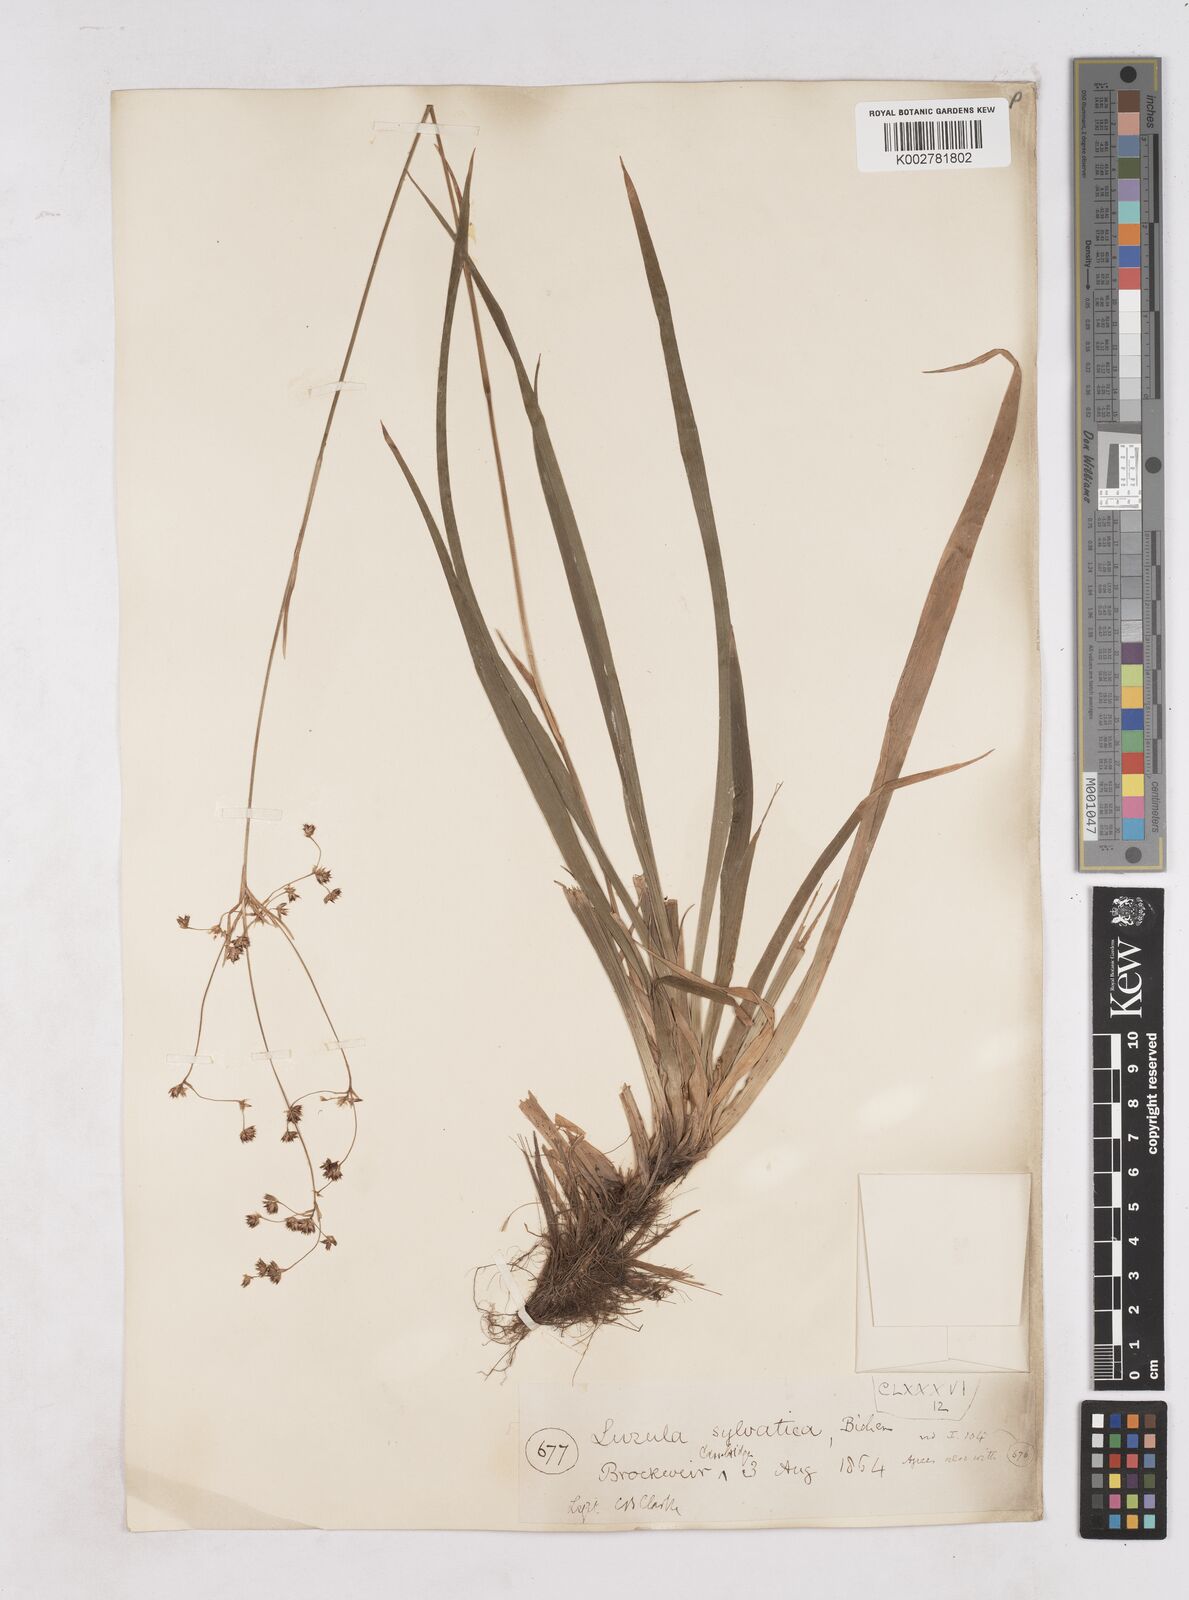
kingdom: Plantae
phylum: Tracheophyta
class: Liliopsida
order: Poales
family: Juncaceae
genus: Luzula
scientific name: Luzula sylvatica
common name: Great wood-rush
